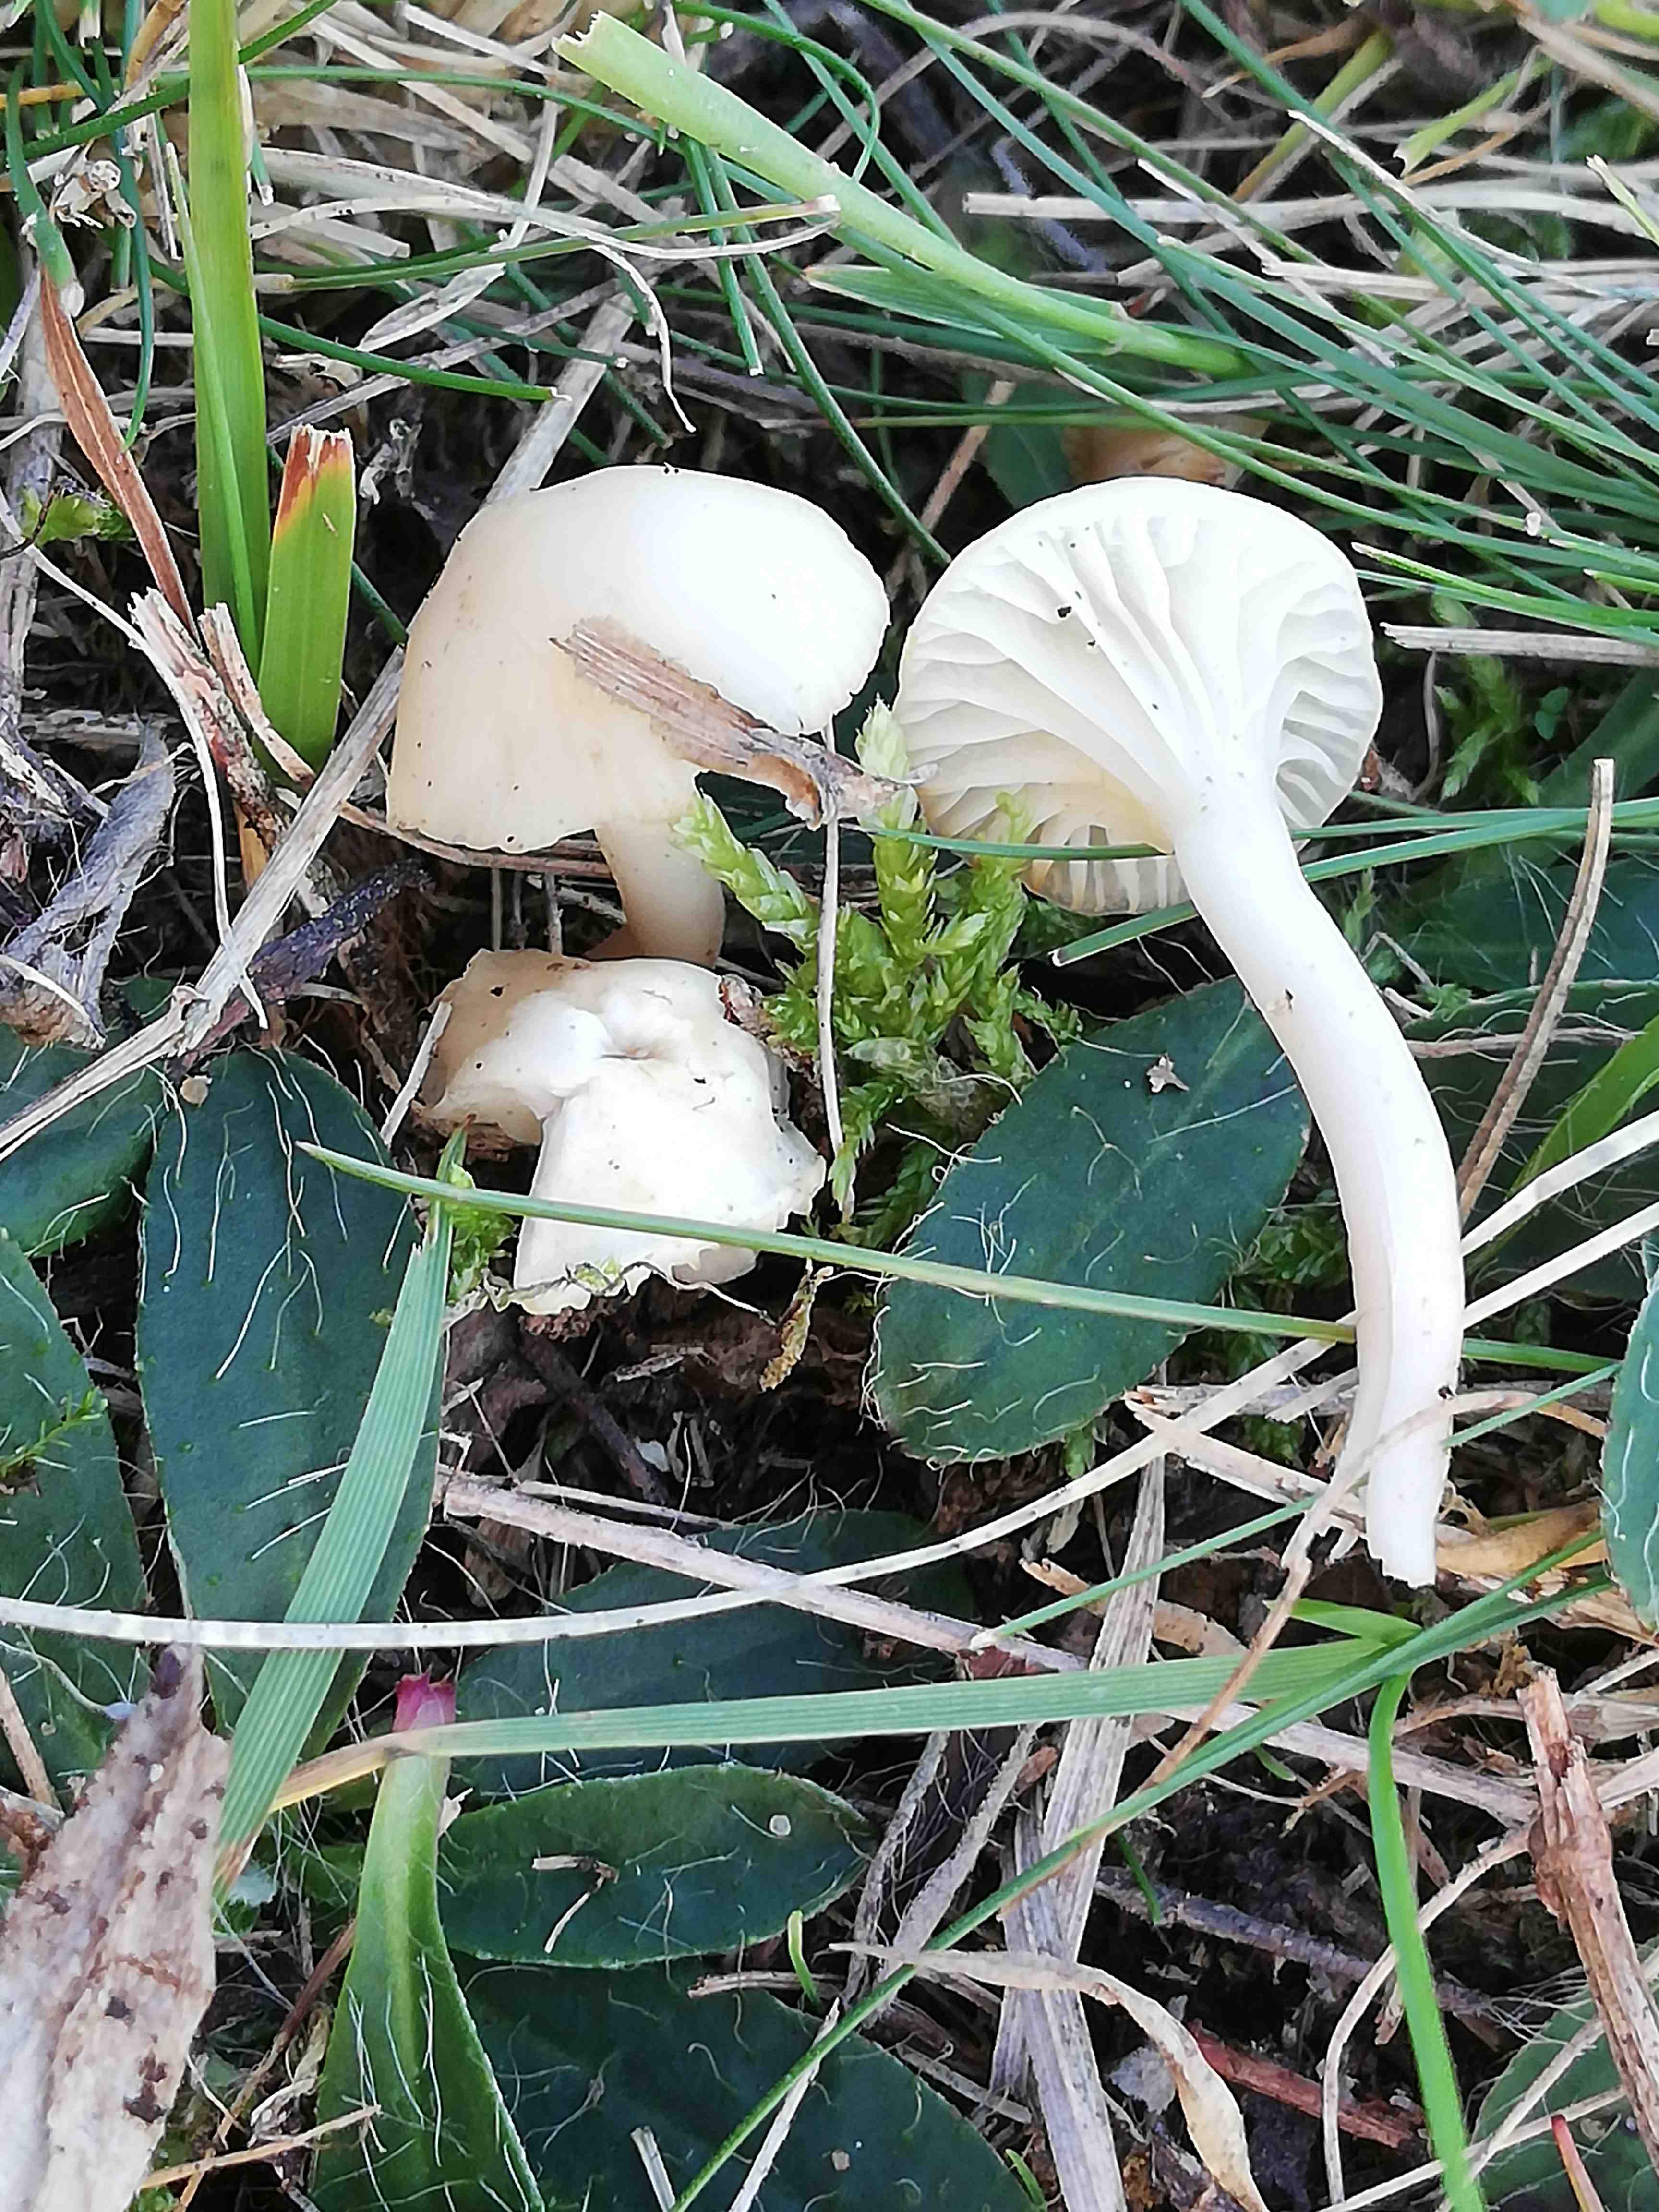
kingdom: Fungi
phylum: Basidiomycota
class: Agaricomycetes
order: Agaricales
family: Hygrophoraceae
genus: Cuphophyllus
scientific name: Cuphophyllus virgineus
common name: snehvid vokshat
